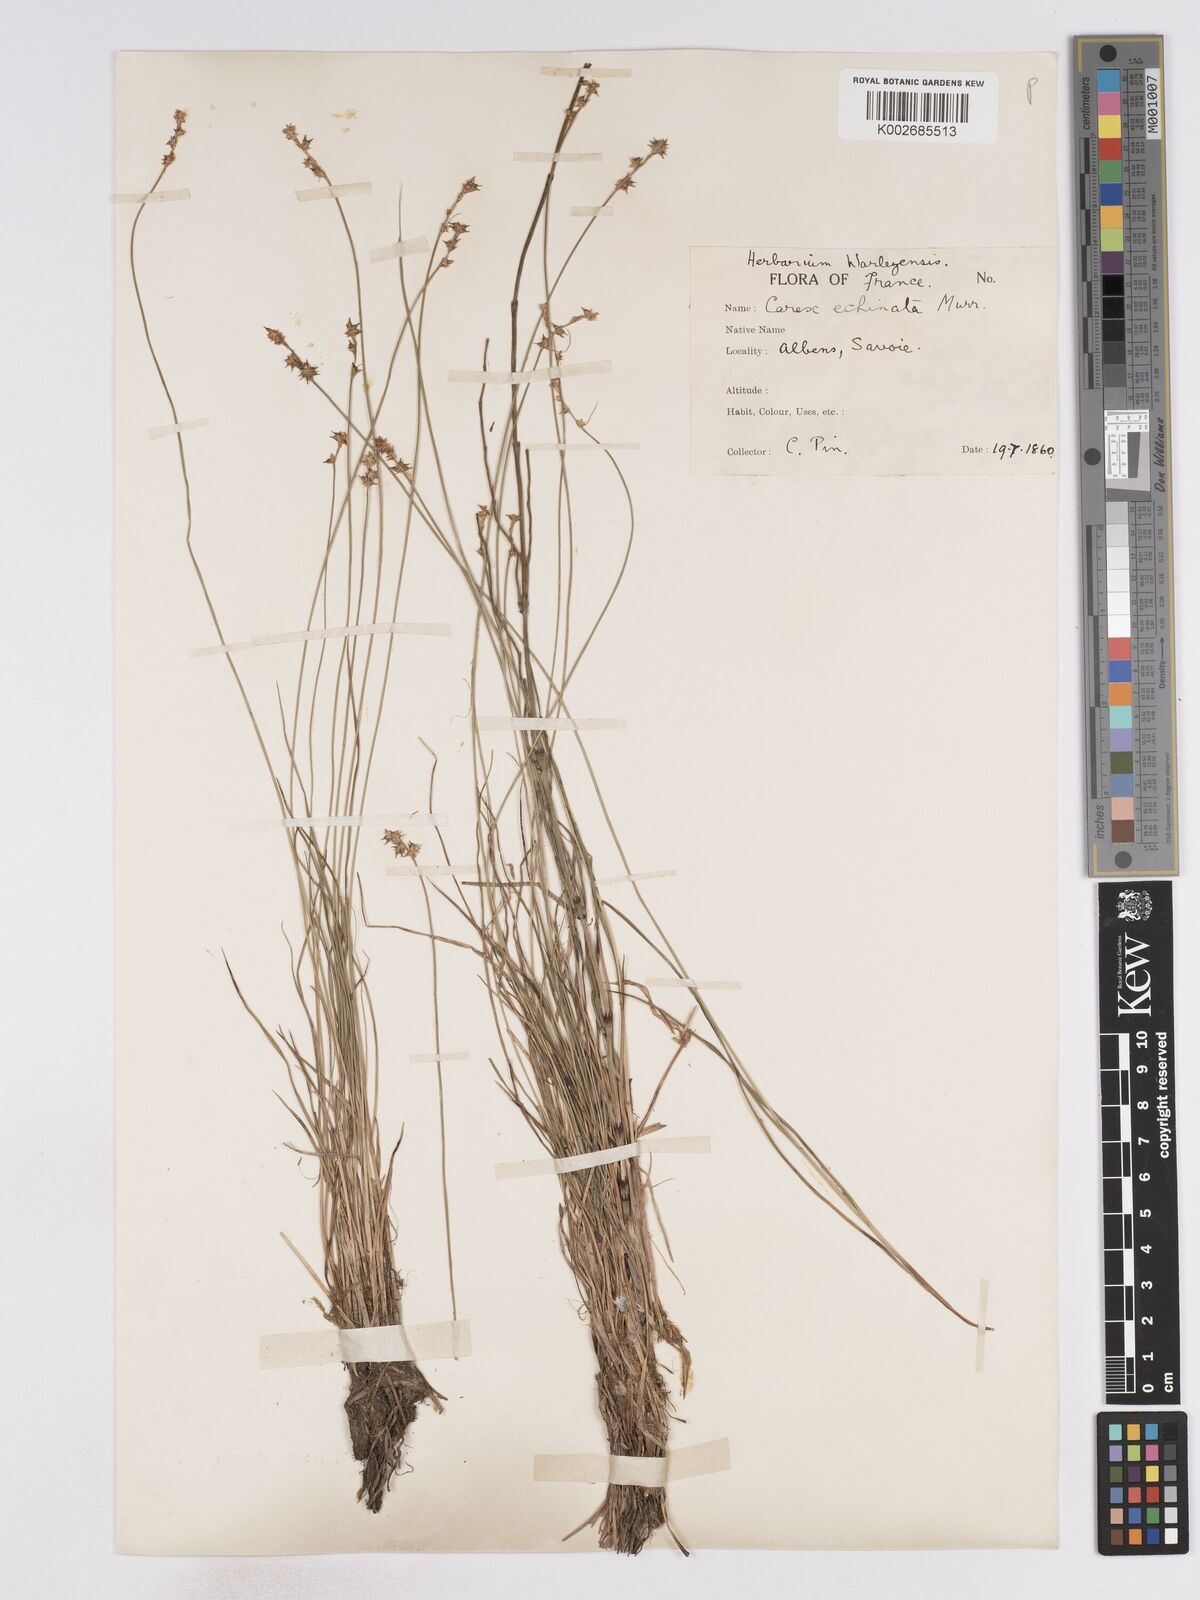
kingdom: Plantae
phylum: Tracheophyta
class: Liliopsida
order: Poales
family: Cyperaceae
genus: Carex
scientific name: Carex echinata
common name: Star sedge
